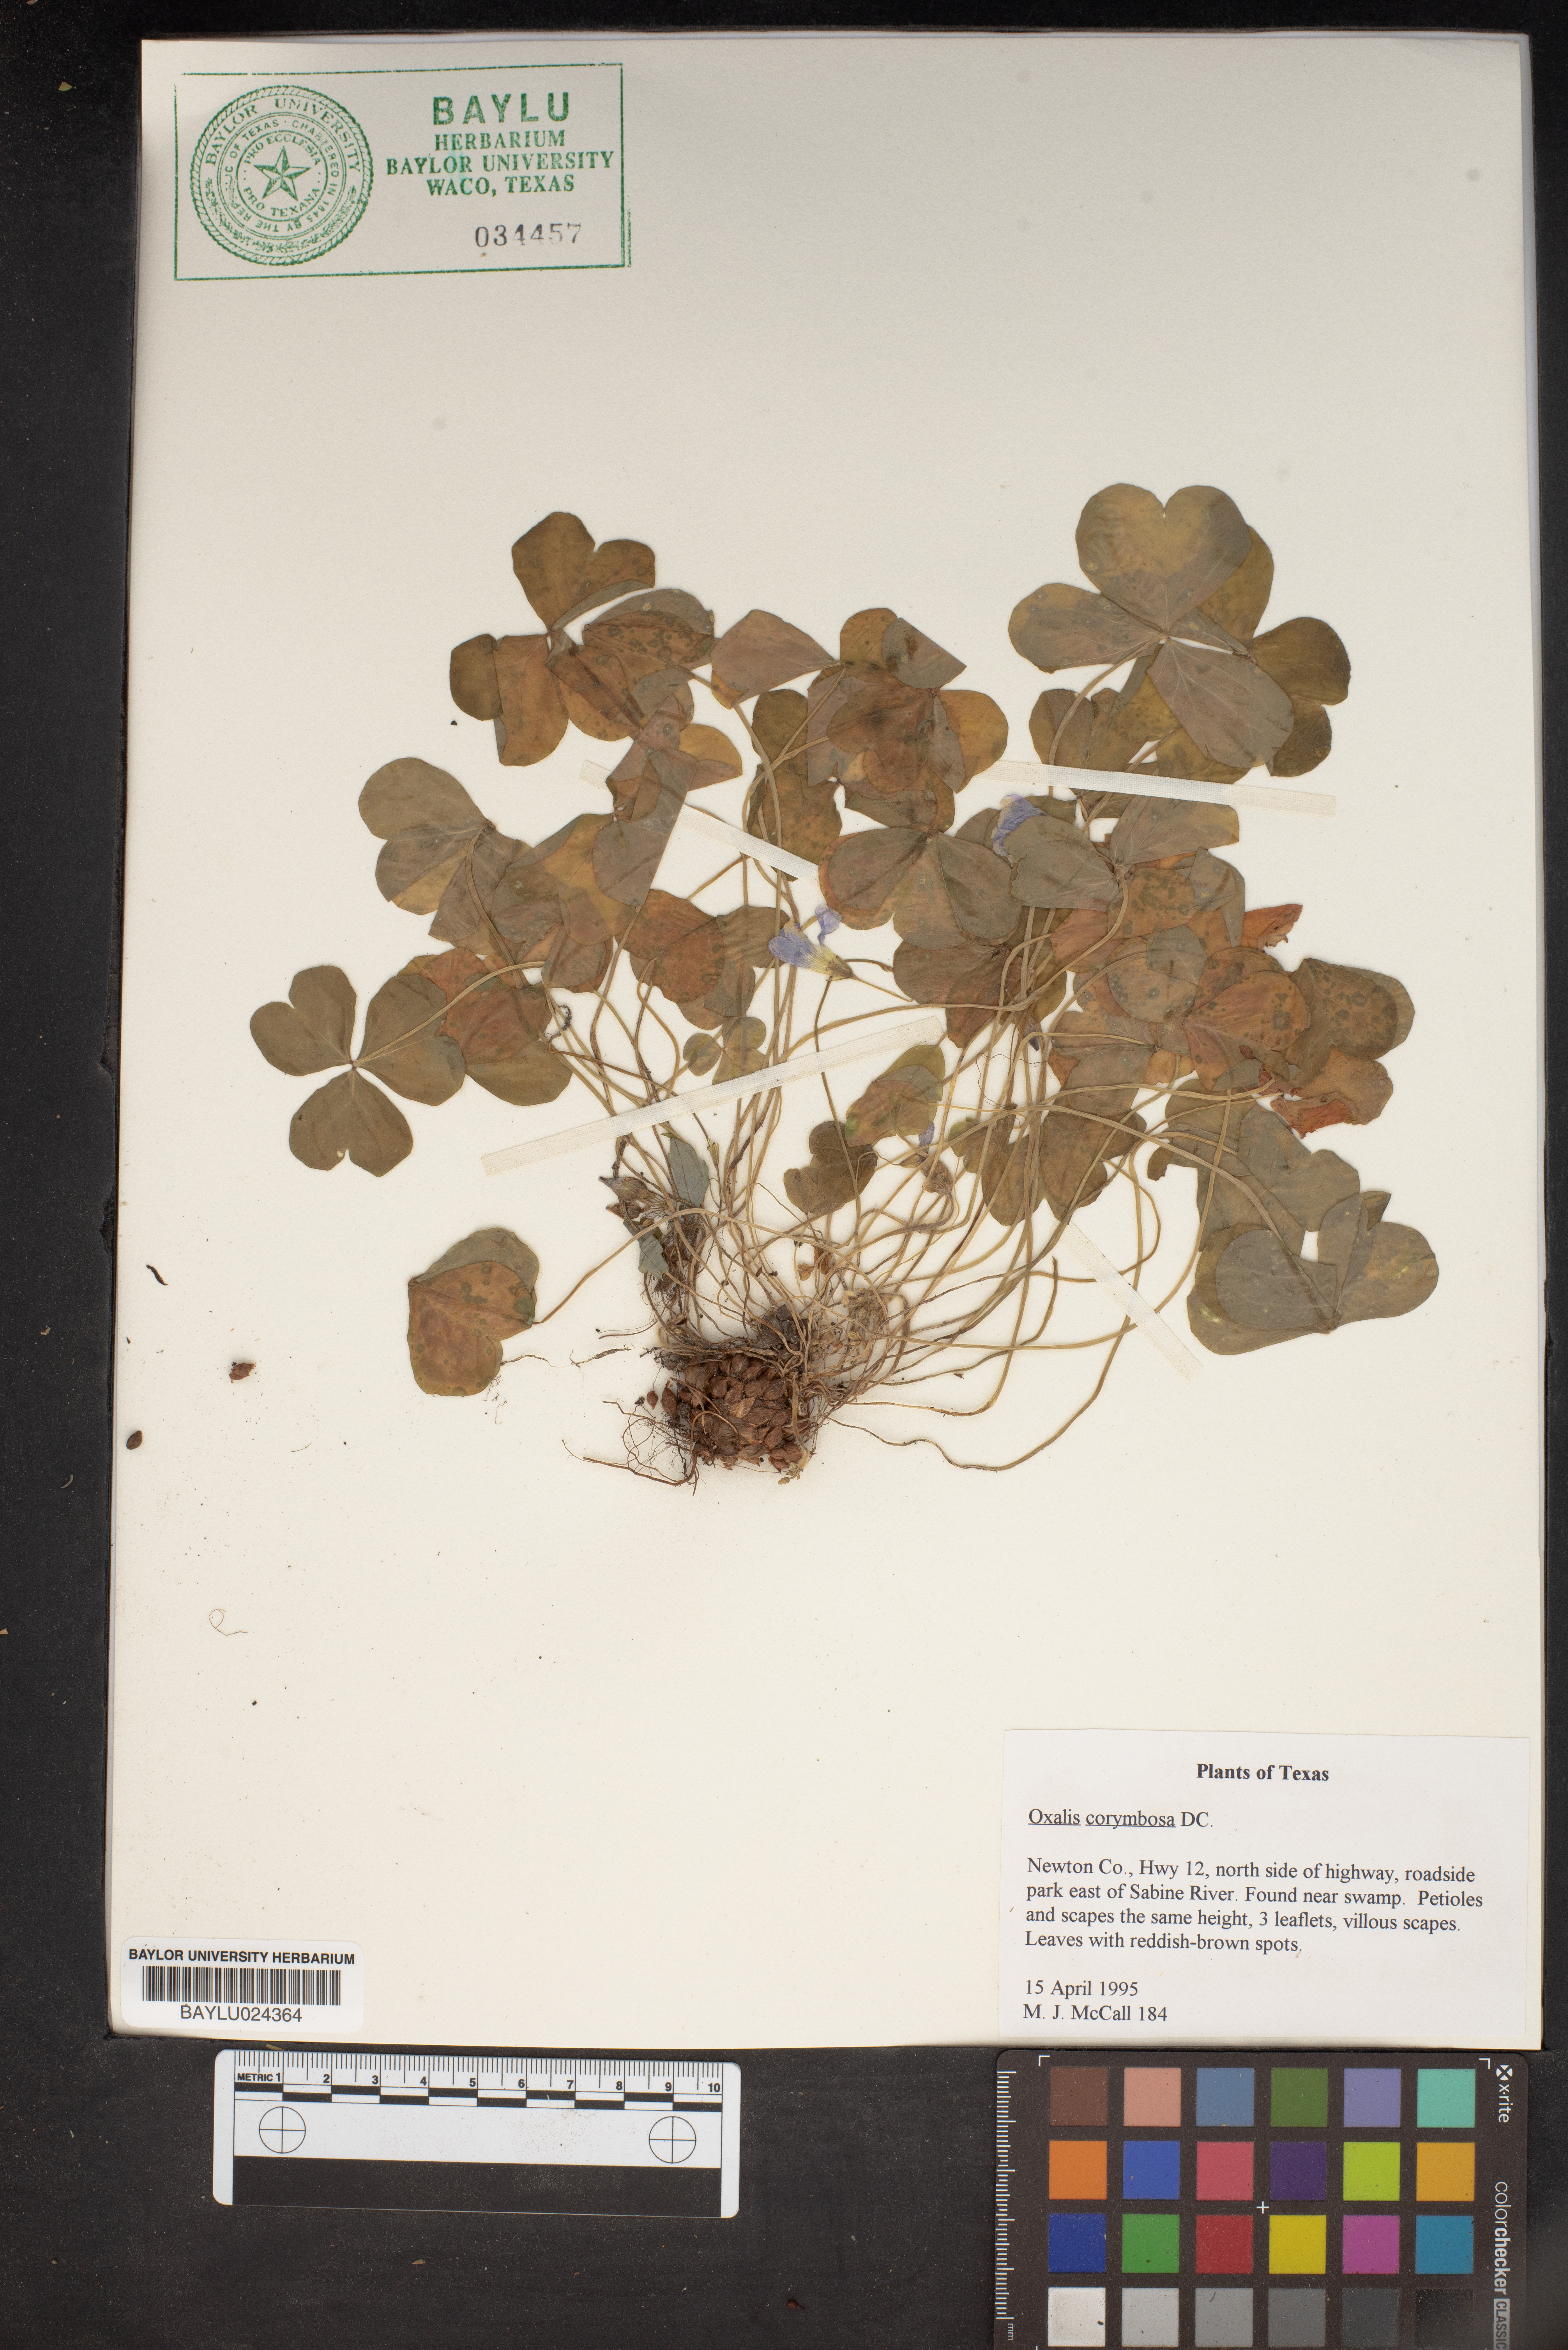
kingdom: Plantae
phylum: Tracheophyta
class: Magnoliopsida
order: Oxalidales
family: Oxalidaceae
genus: Oxalis
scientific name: Oxalis debilis
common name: Large-flowered pink-sorrel
